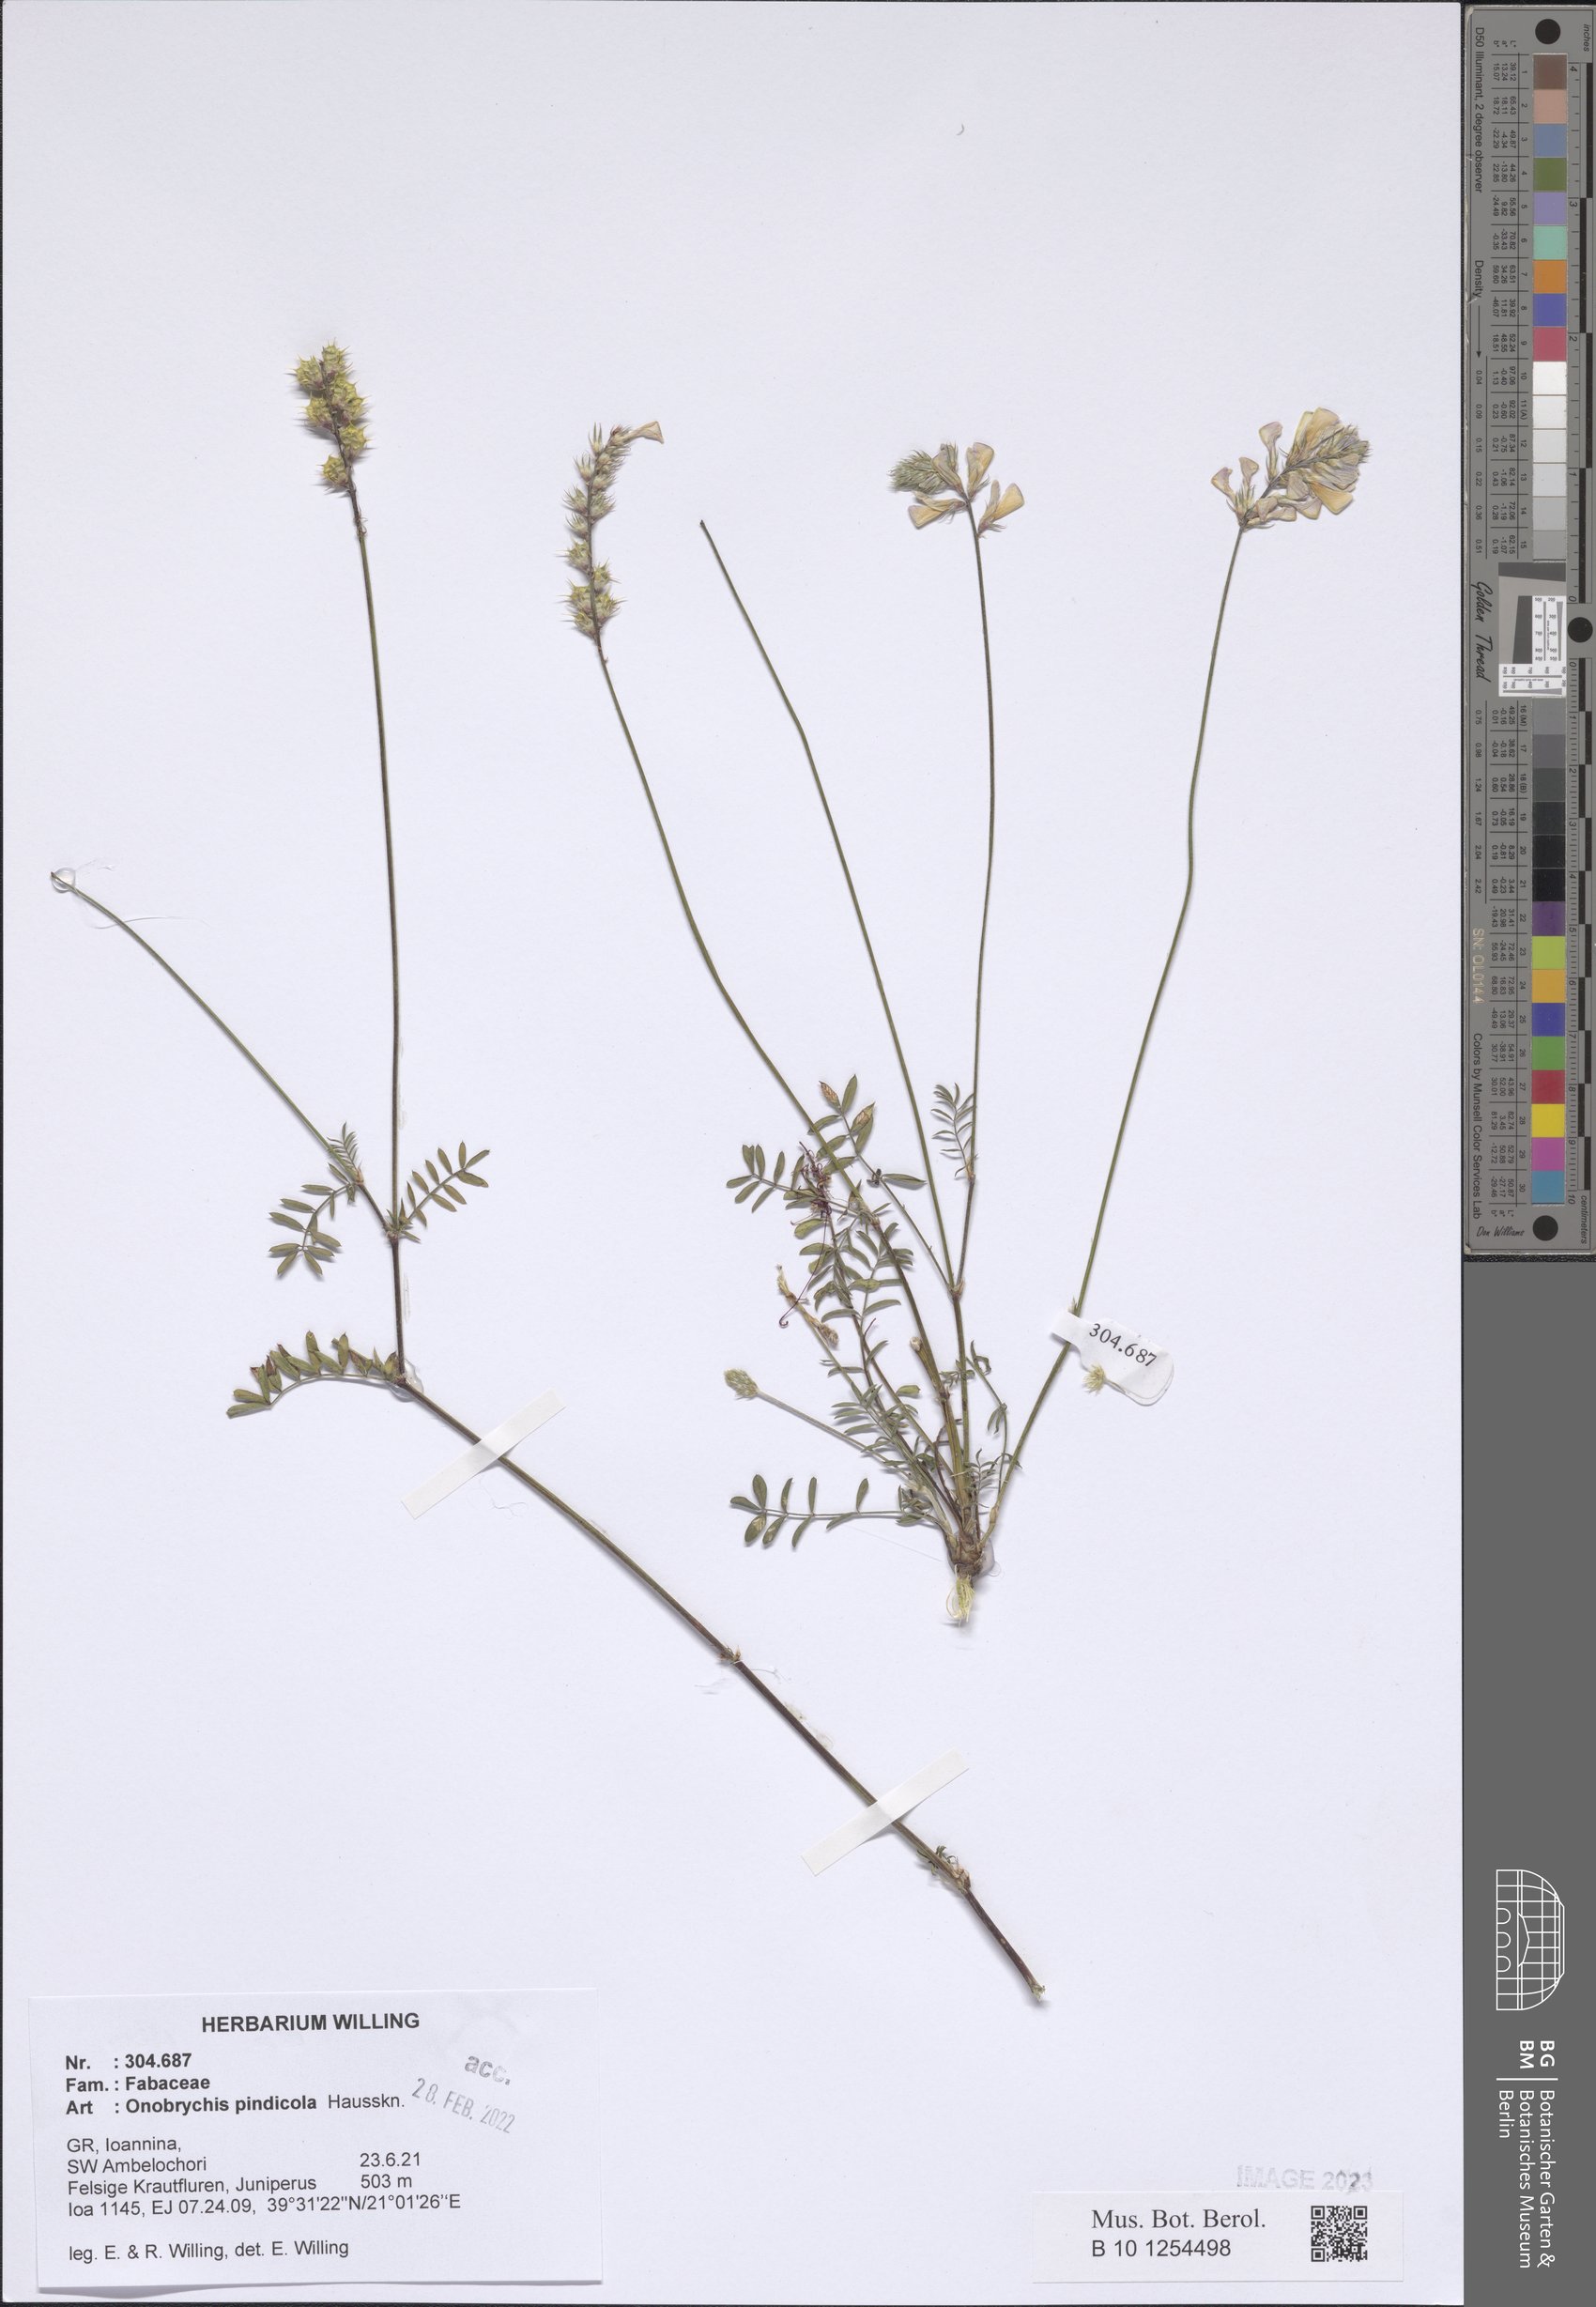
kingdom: Plantae
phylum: Tracheophyta
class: Magnoliopsida
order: Fabales
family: Fabaceae
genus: Onobrychis
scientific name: Onobrychis pindicola
